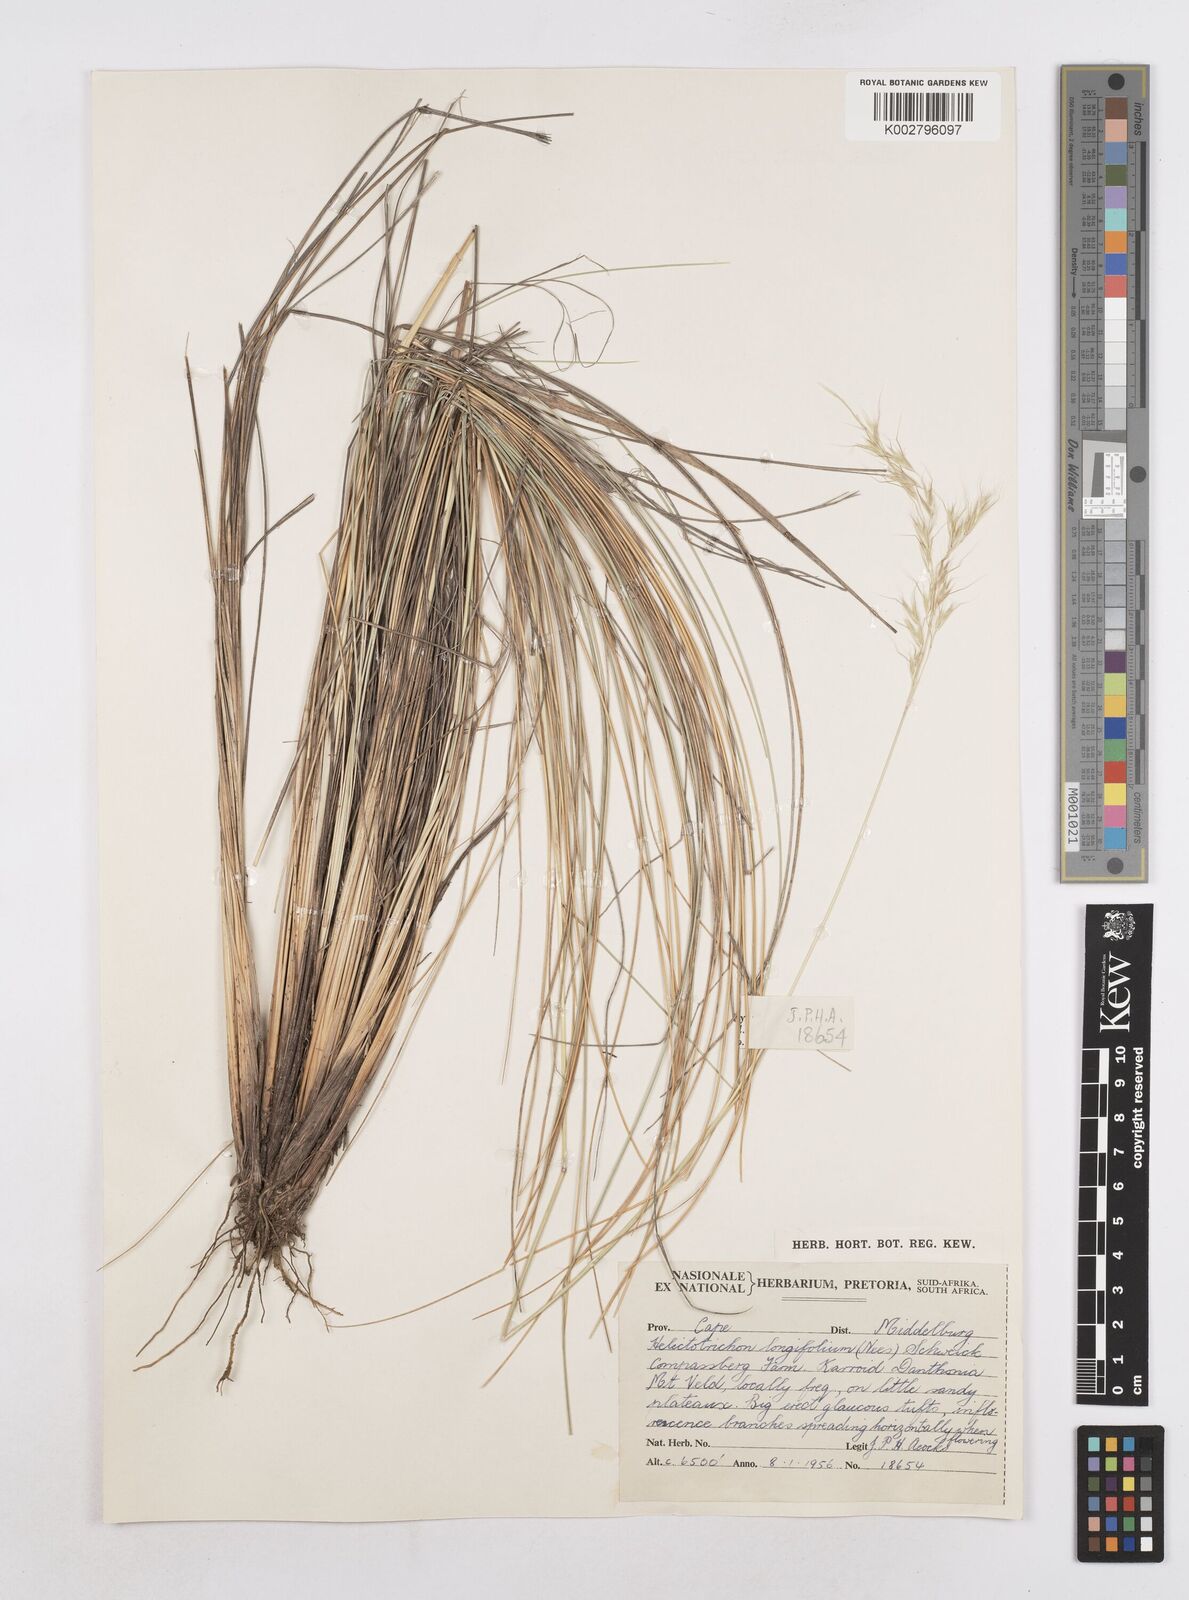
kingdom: Plantae
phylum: Tracheophyta
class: Liliopsida
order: Poales
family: Poaceae
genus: Trisetopsis
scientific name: Trisetopsis longifolia
